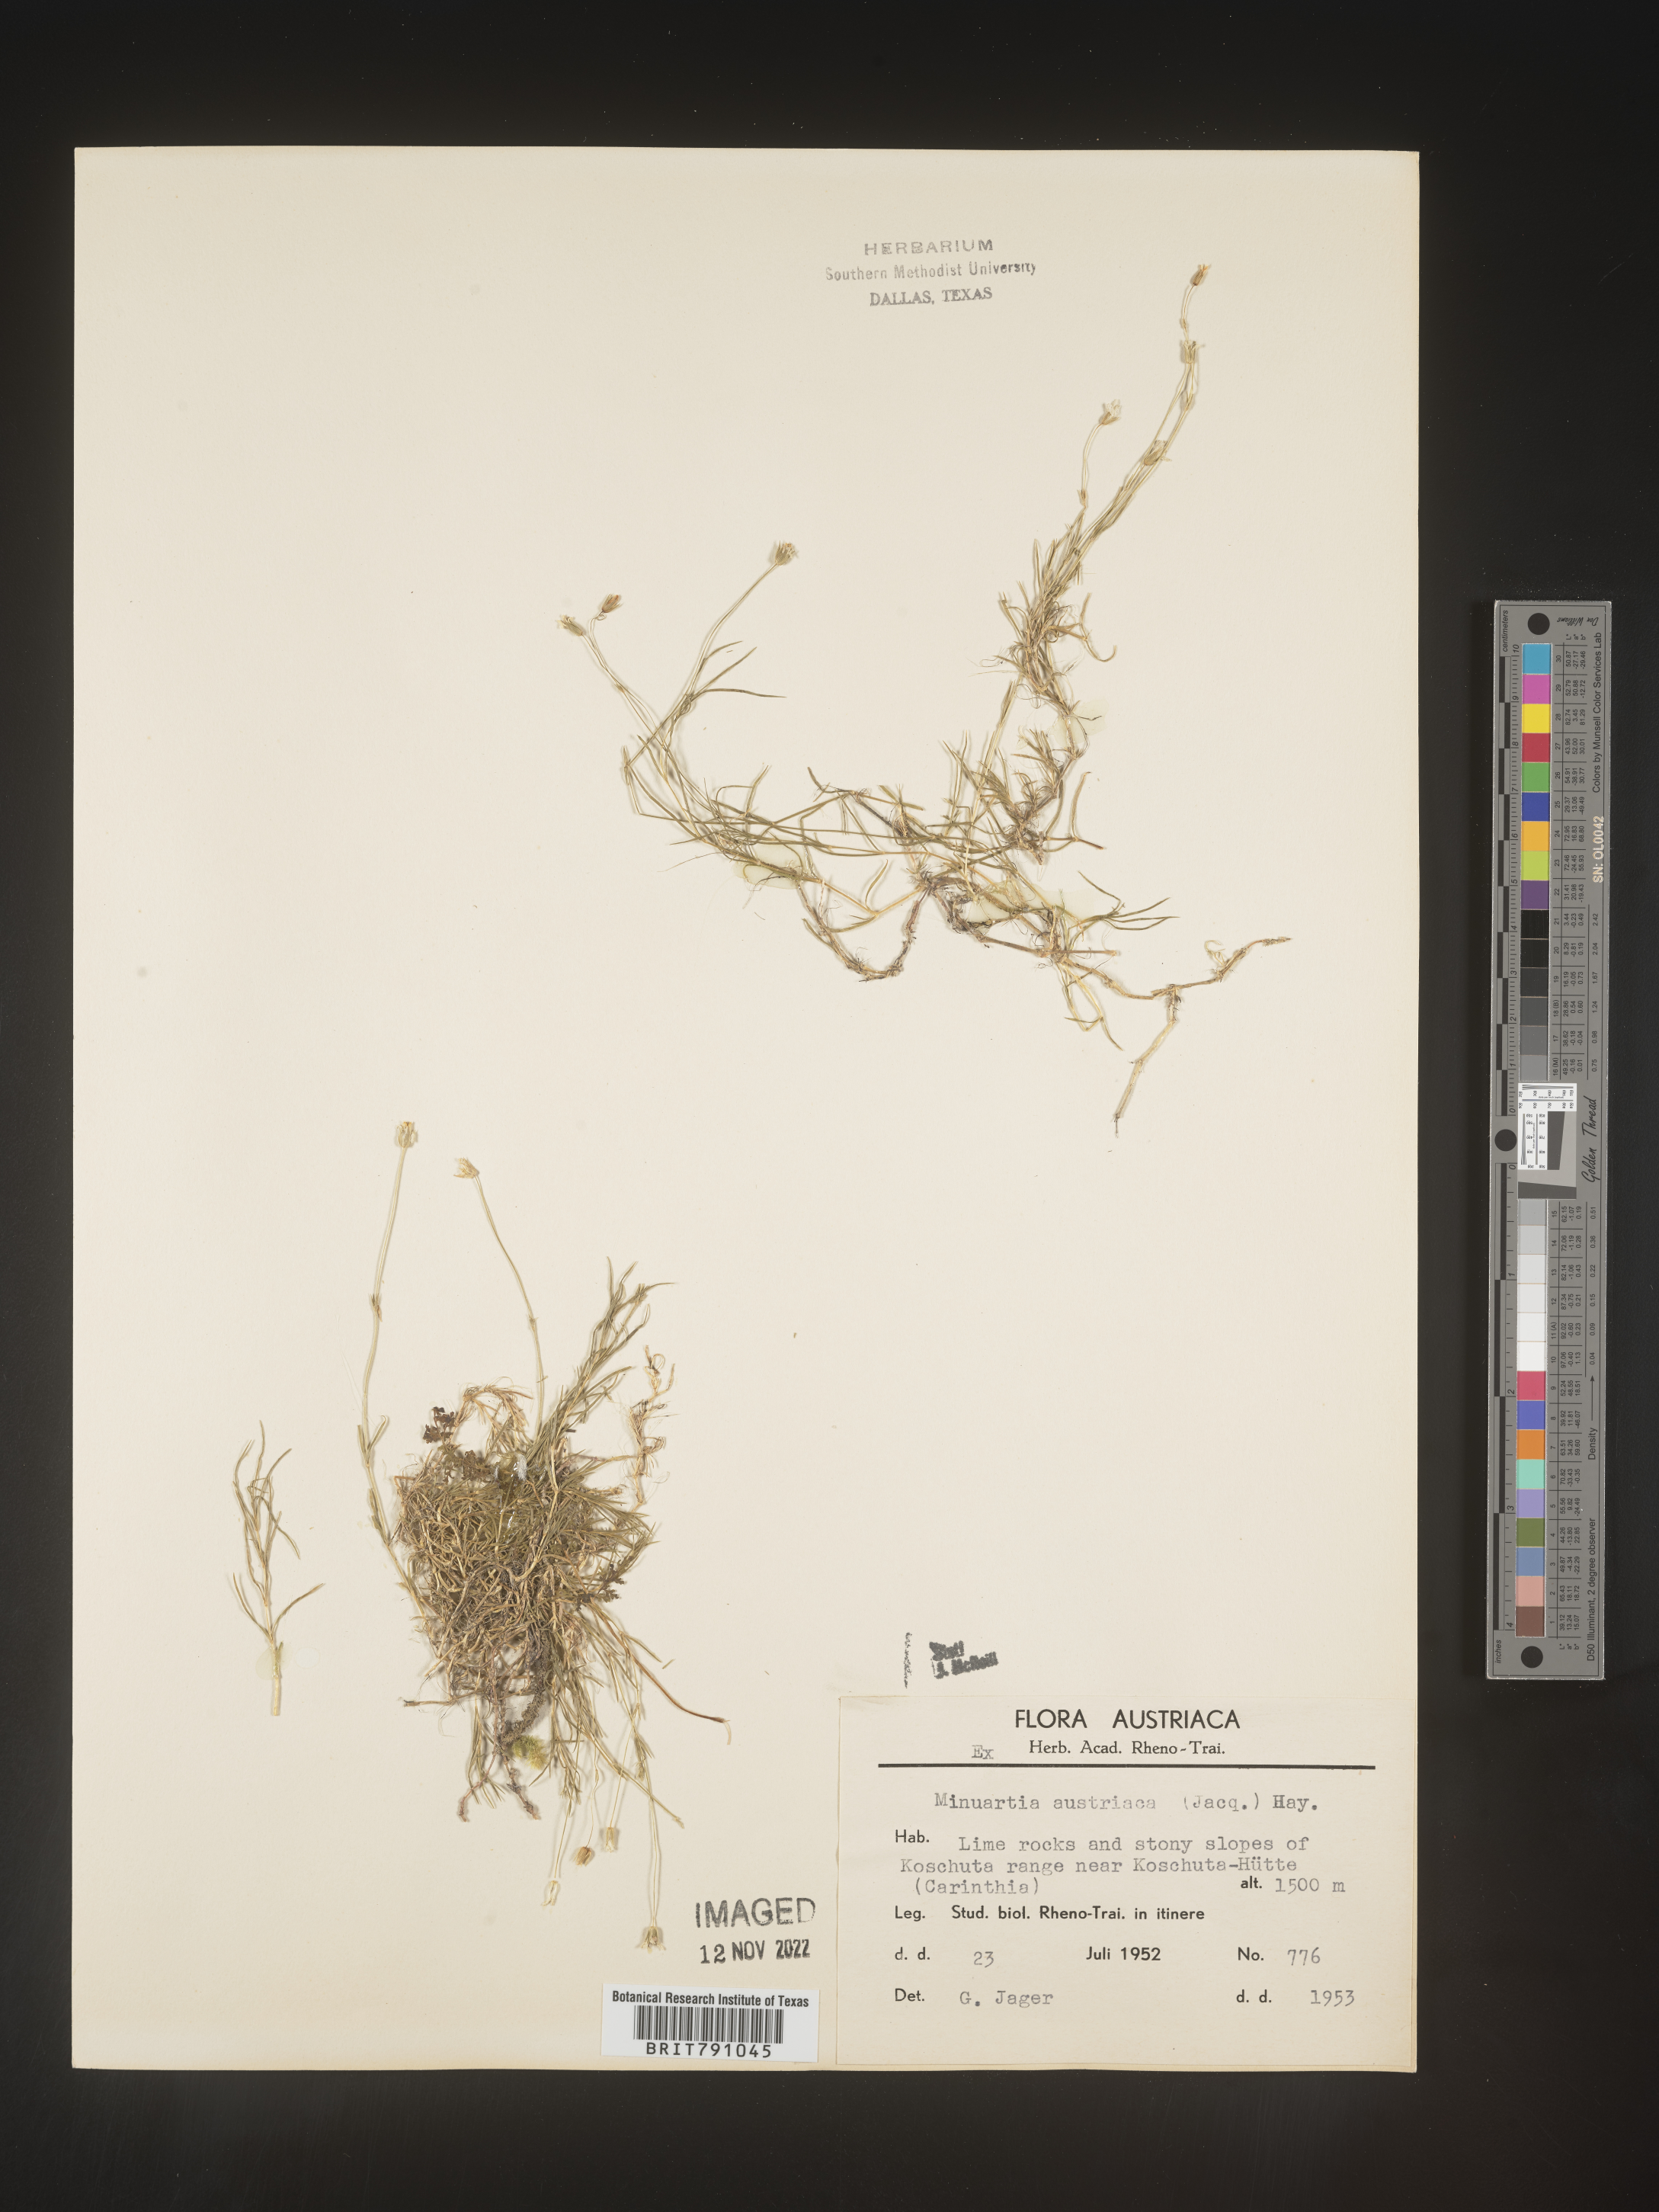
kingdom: Plantae
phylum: Tracheophyta
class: Magnoliopsida
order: Caryophyllales
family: Caryophyllaceae
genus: Minuartia
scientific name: Minuartia
